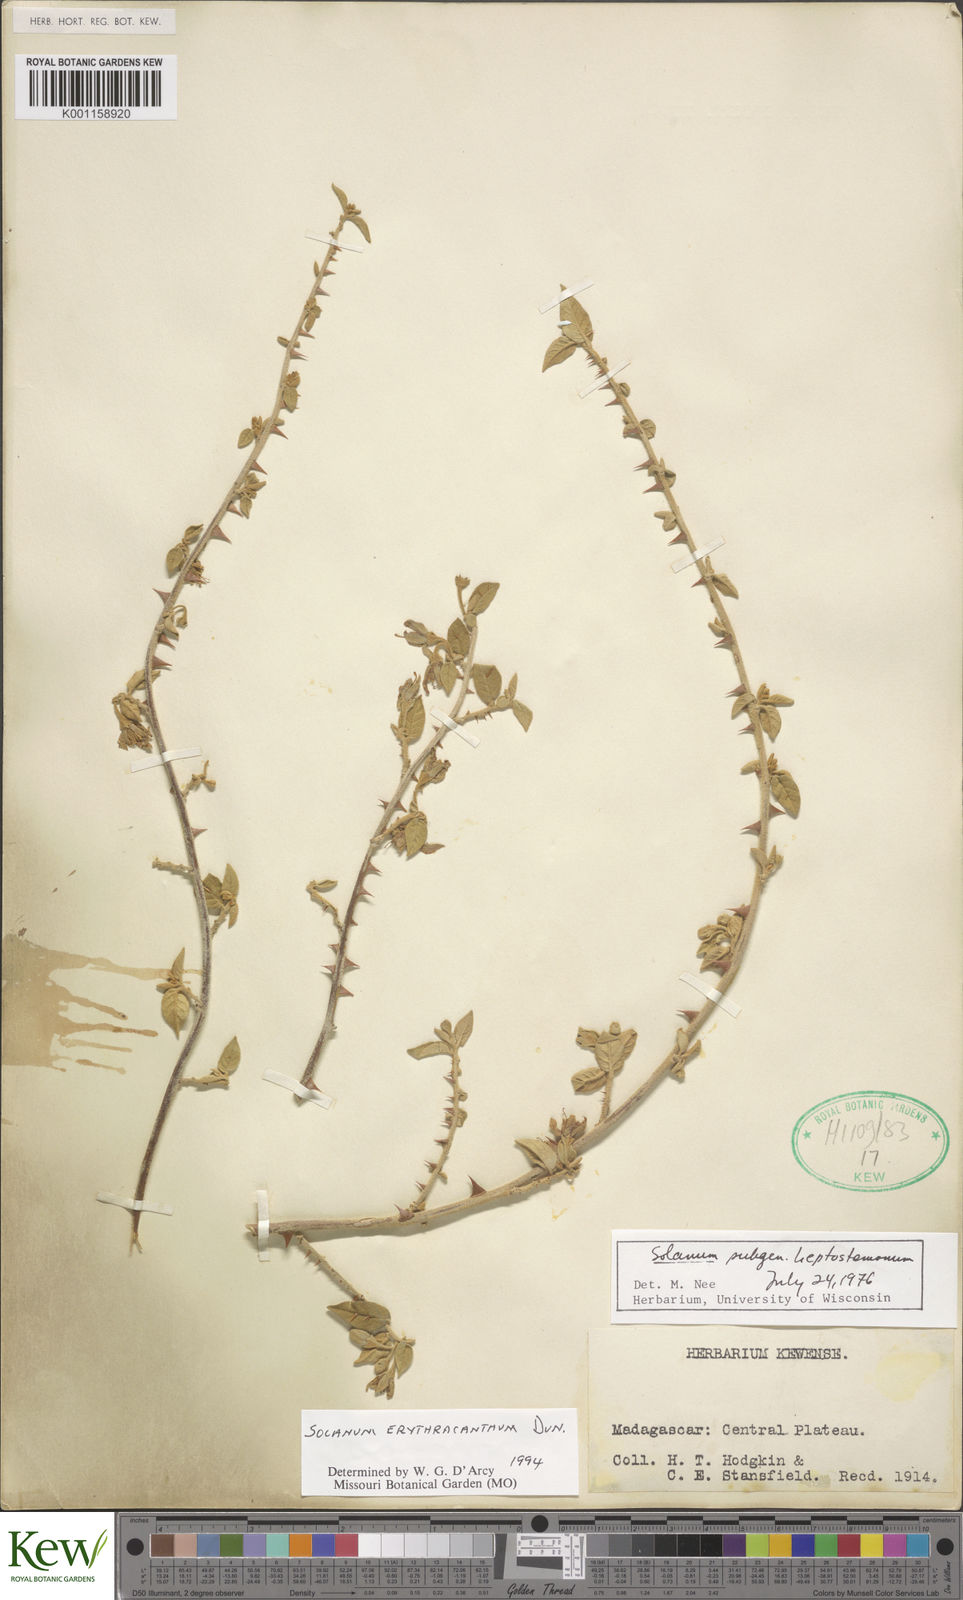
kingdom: Plantae
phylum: Tracheophyta
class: Magnoliopsida
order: Solanales
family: Solanaceae
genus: Solanum
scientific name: Solanum erythracanthum
